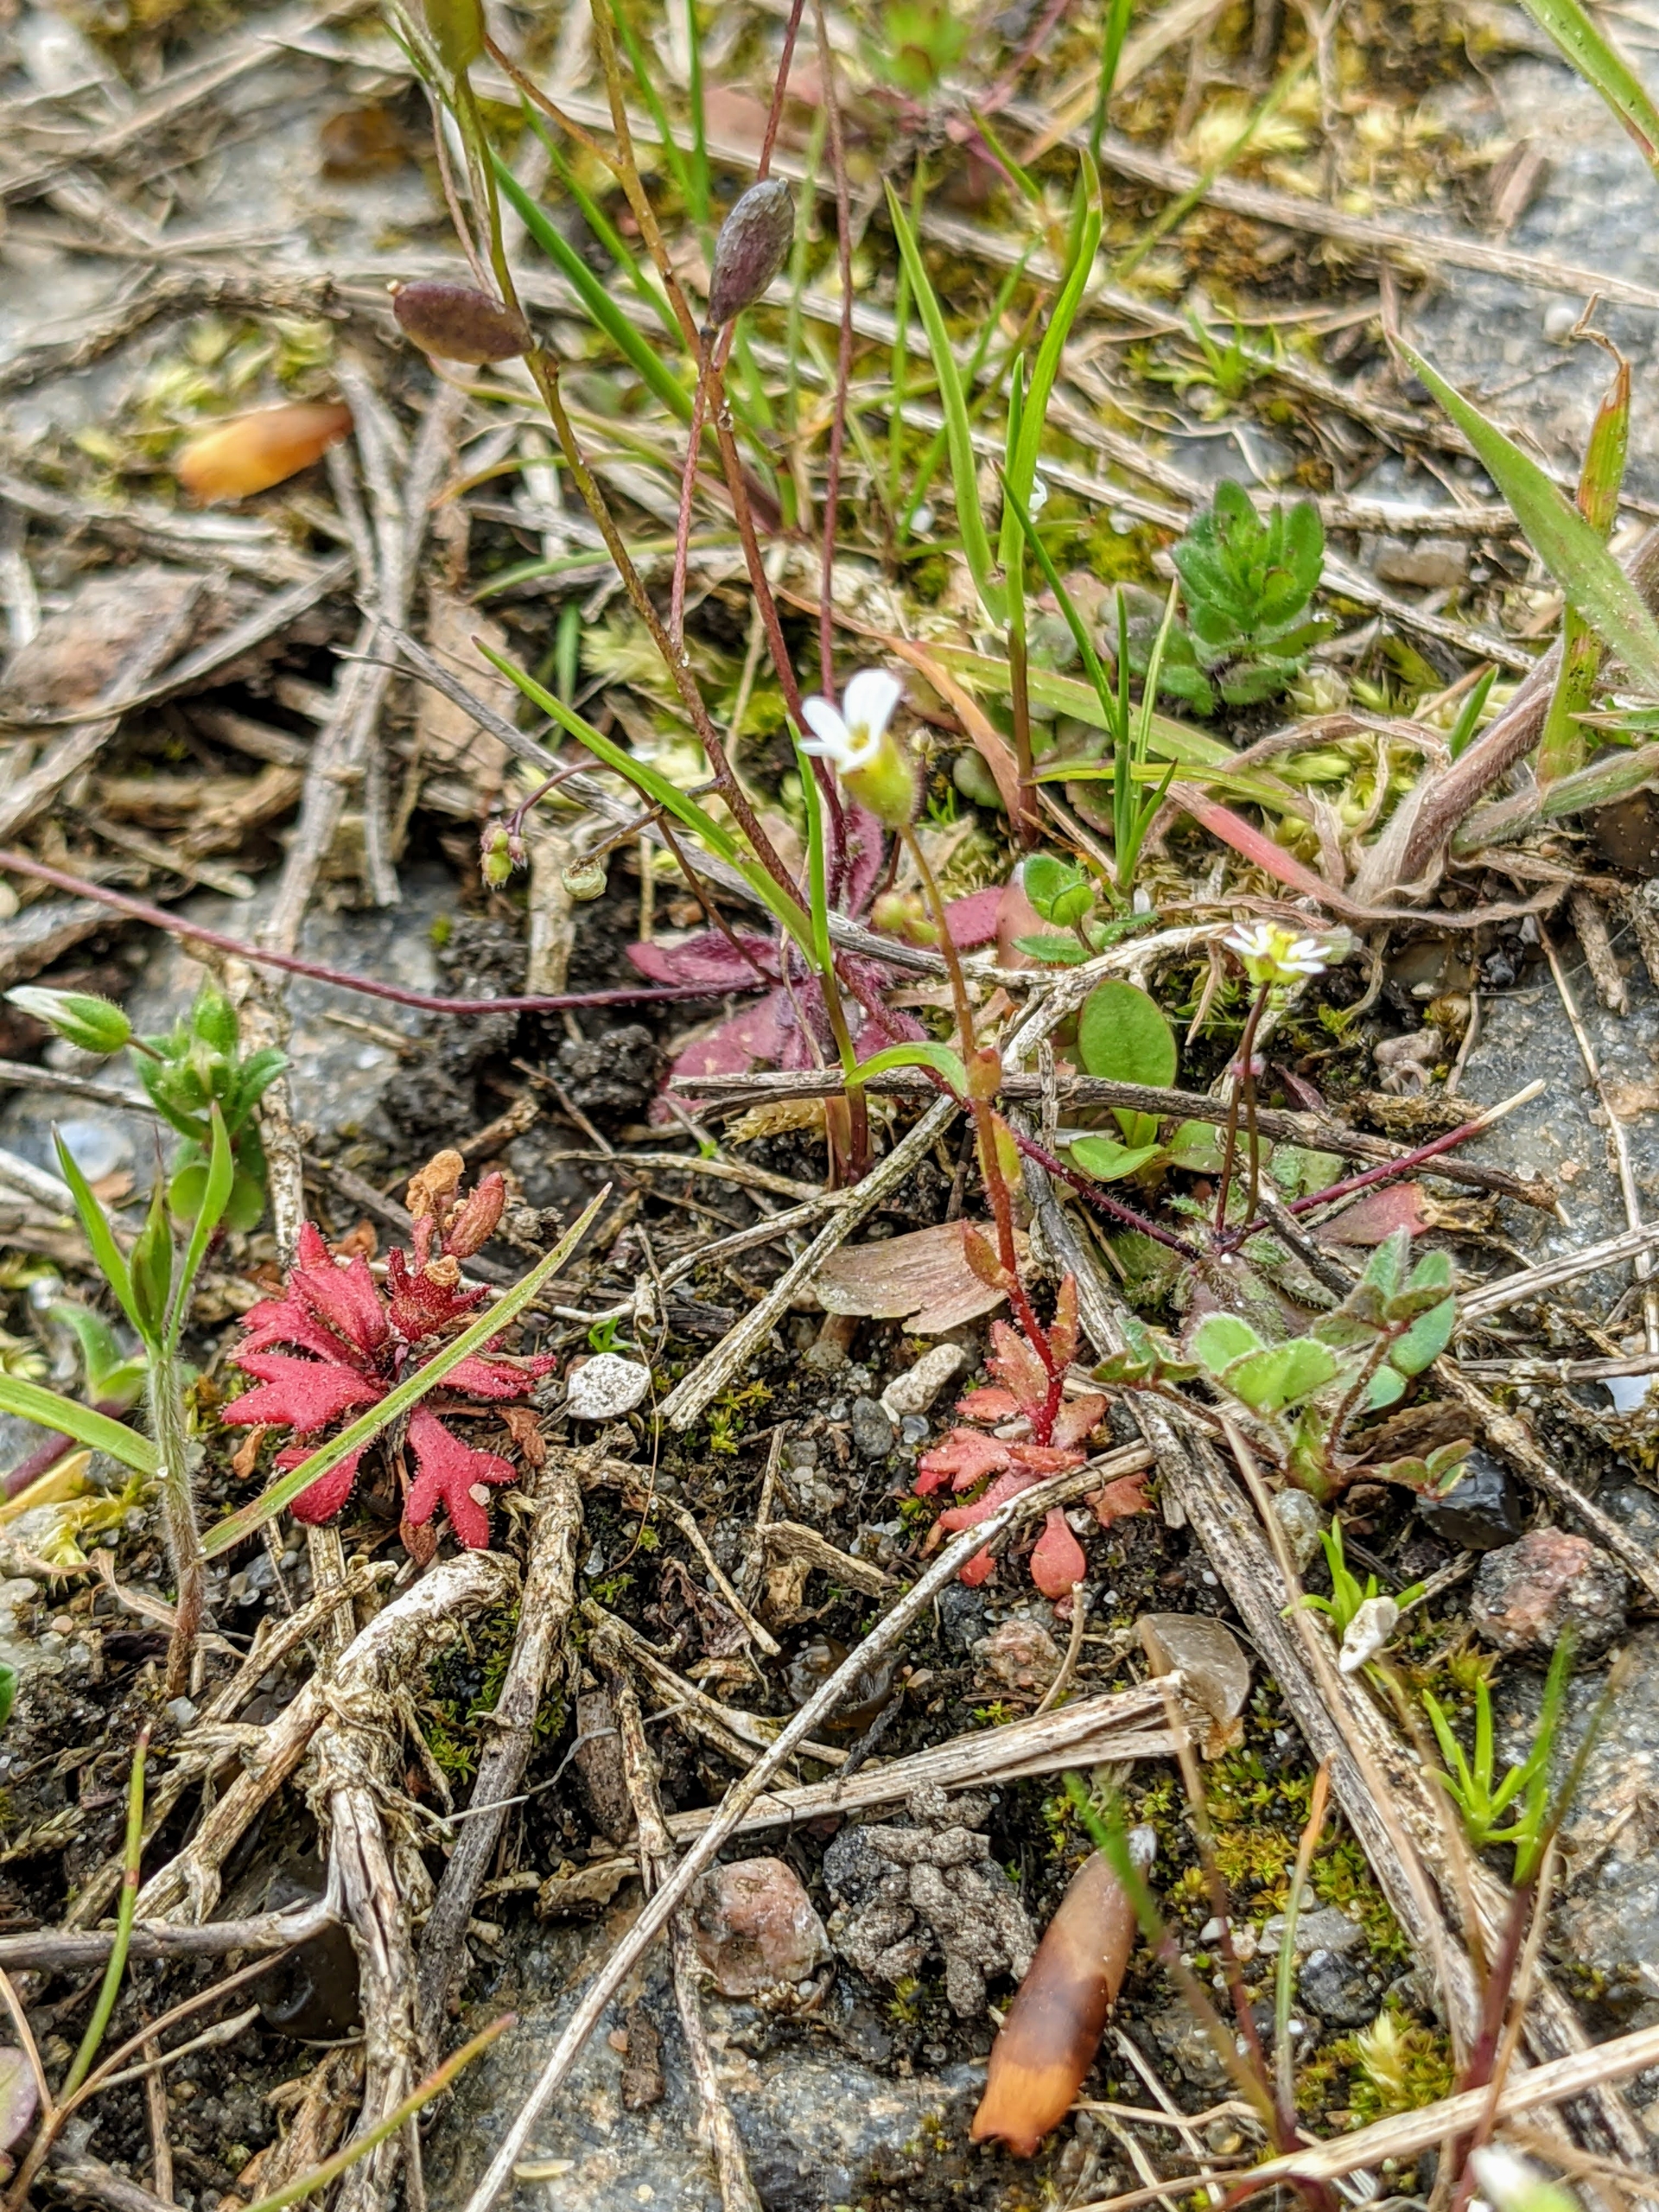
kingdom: Plantae
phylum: Tracheophyta
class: Magnoliopsida
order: Saxifragales
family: Saxifragaceae
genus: Saxifraga
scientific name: Saxifraga tridactylites
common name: Trekløft-stenbræk
